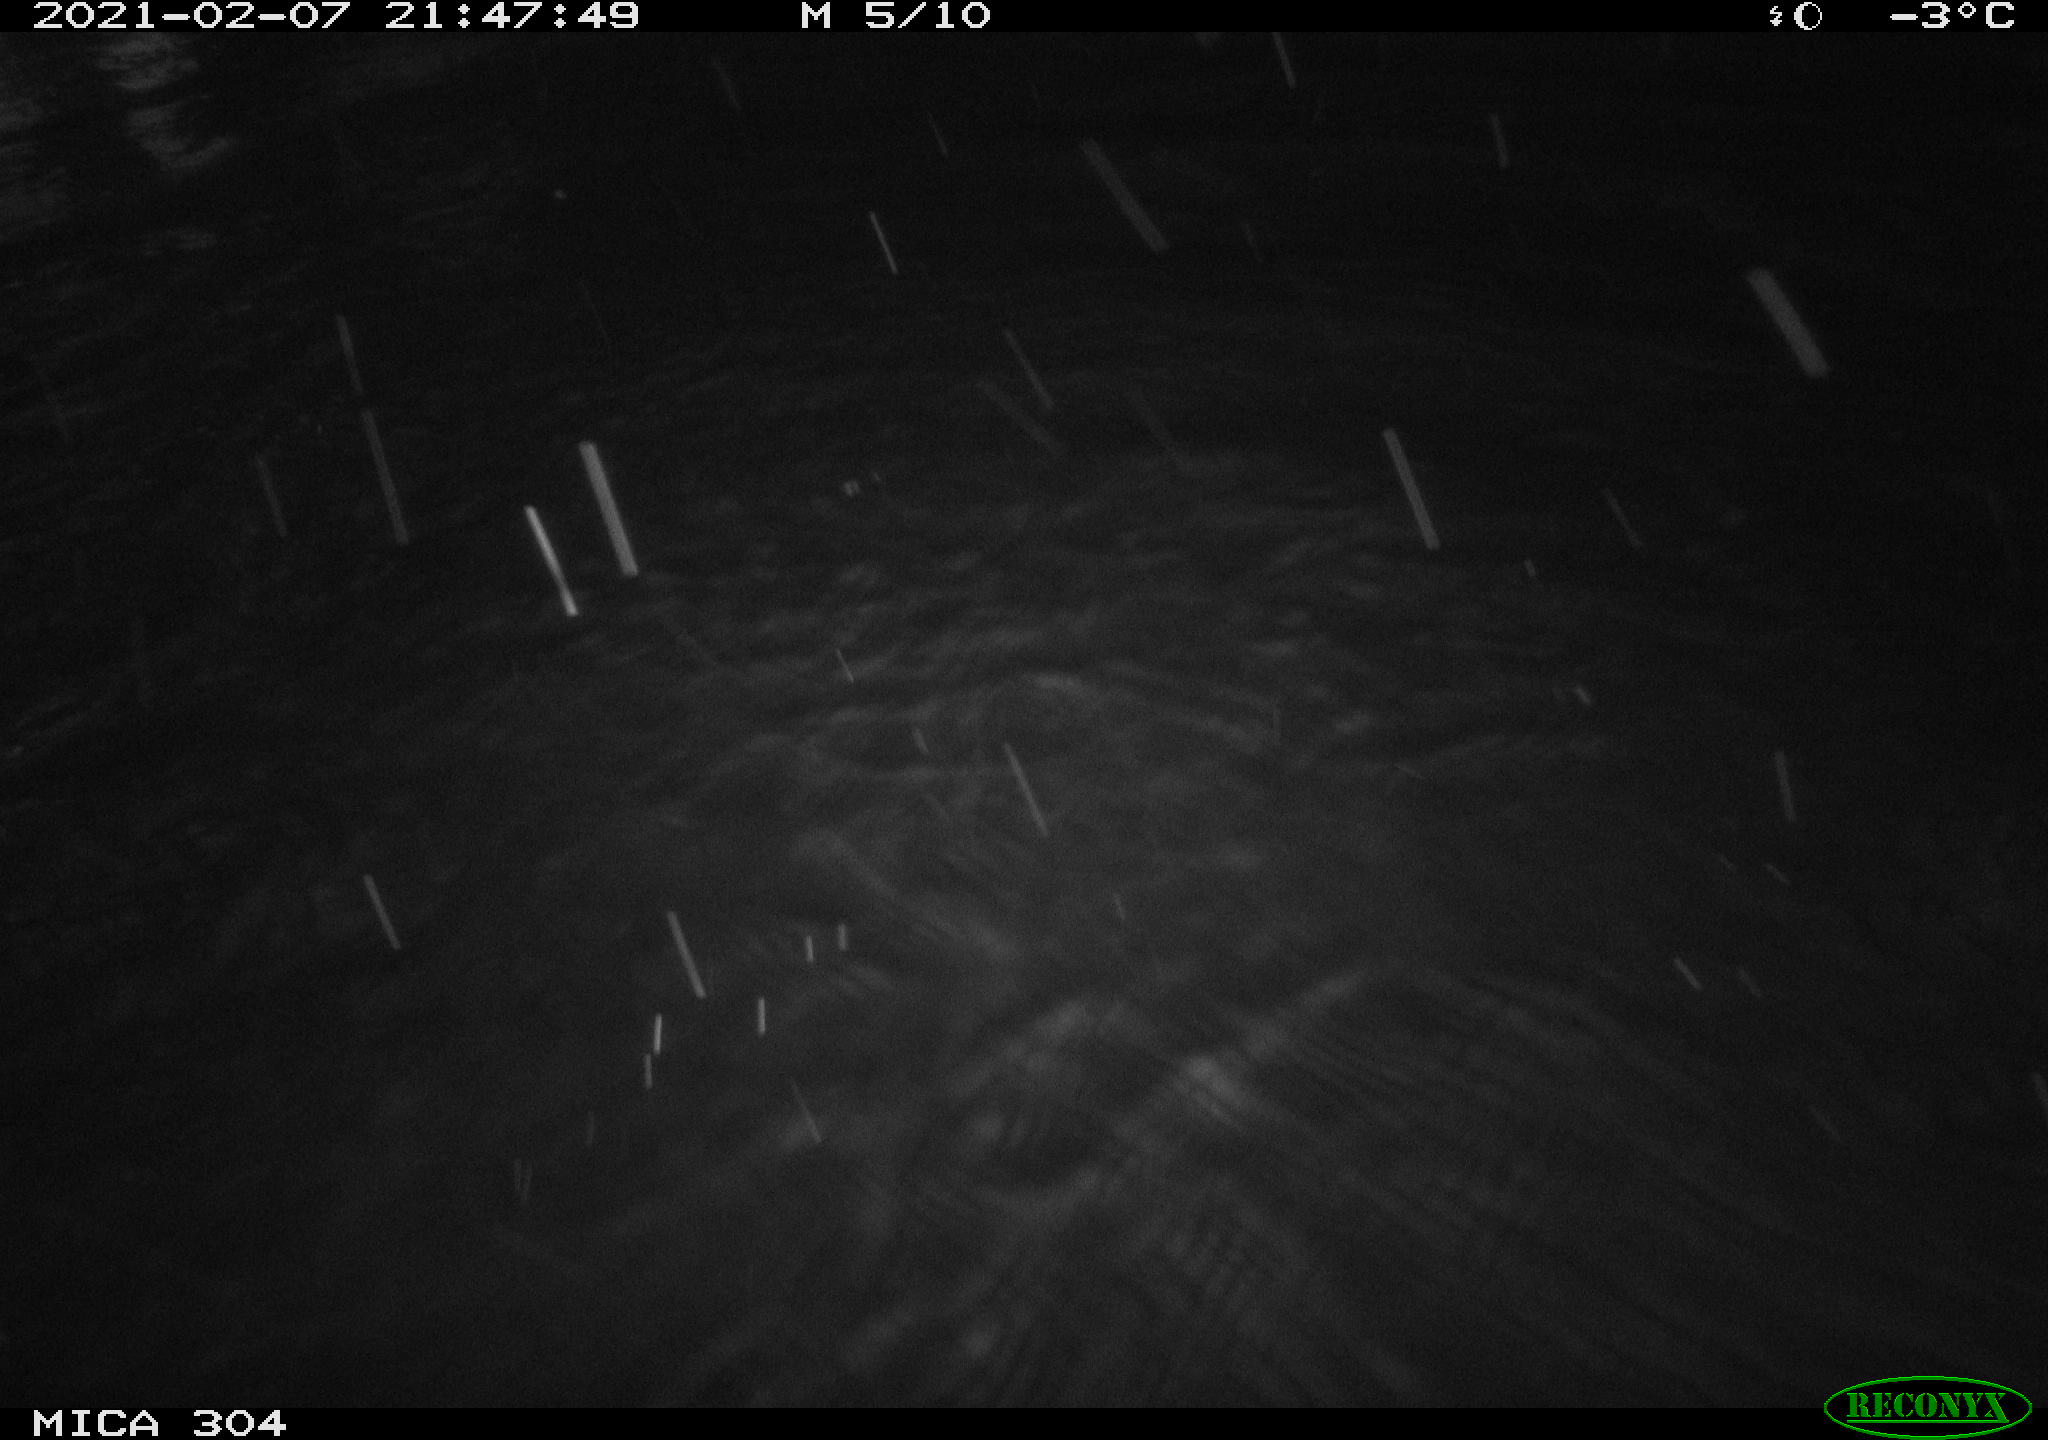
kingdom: Animalia
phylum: Chordata
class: Aves
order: Anseriformes
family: Anatidae
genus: Anas
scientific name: Anas platyrhynchos
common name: Mallard
